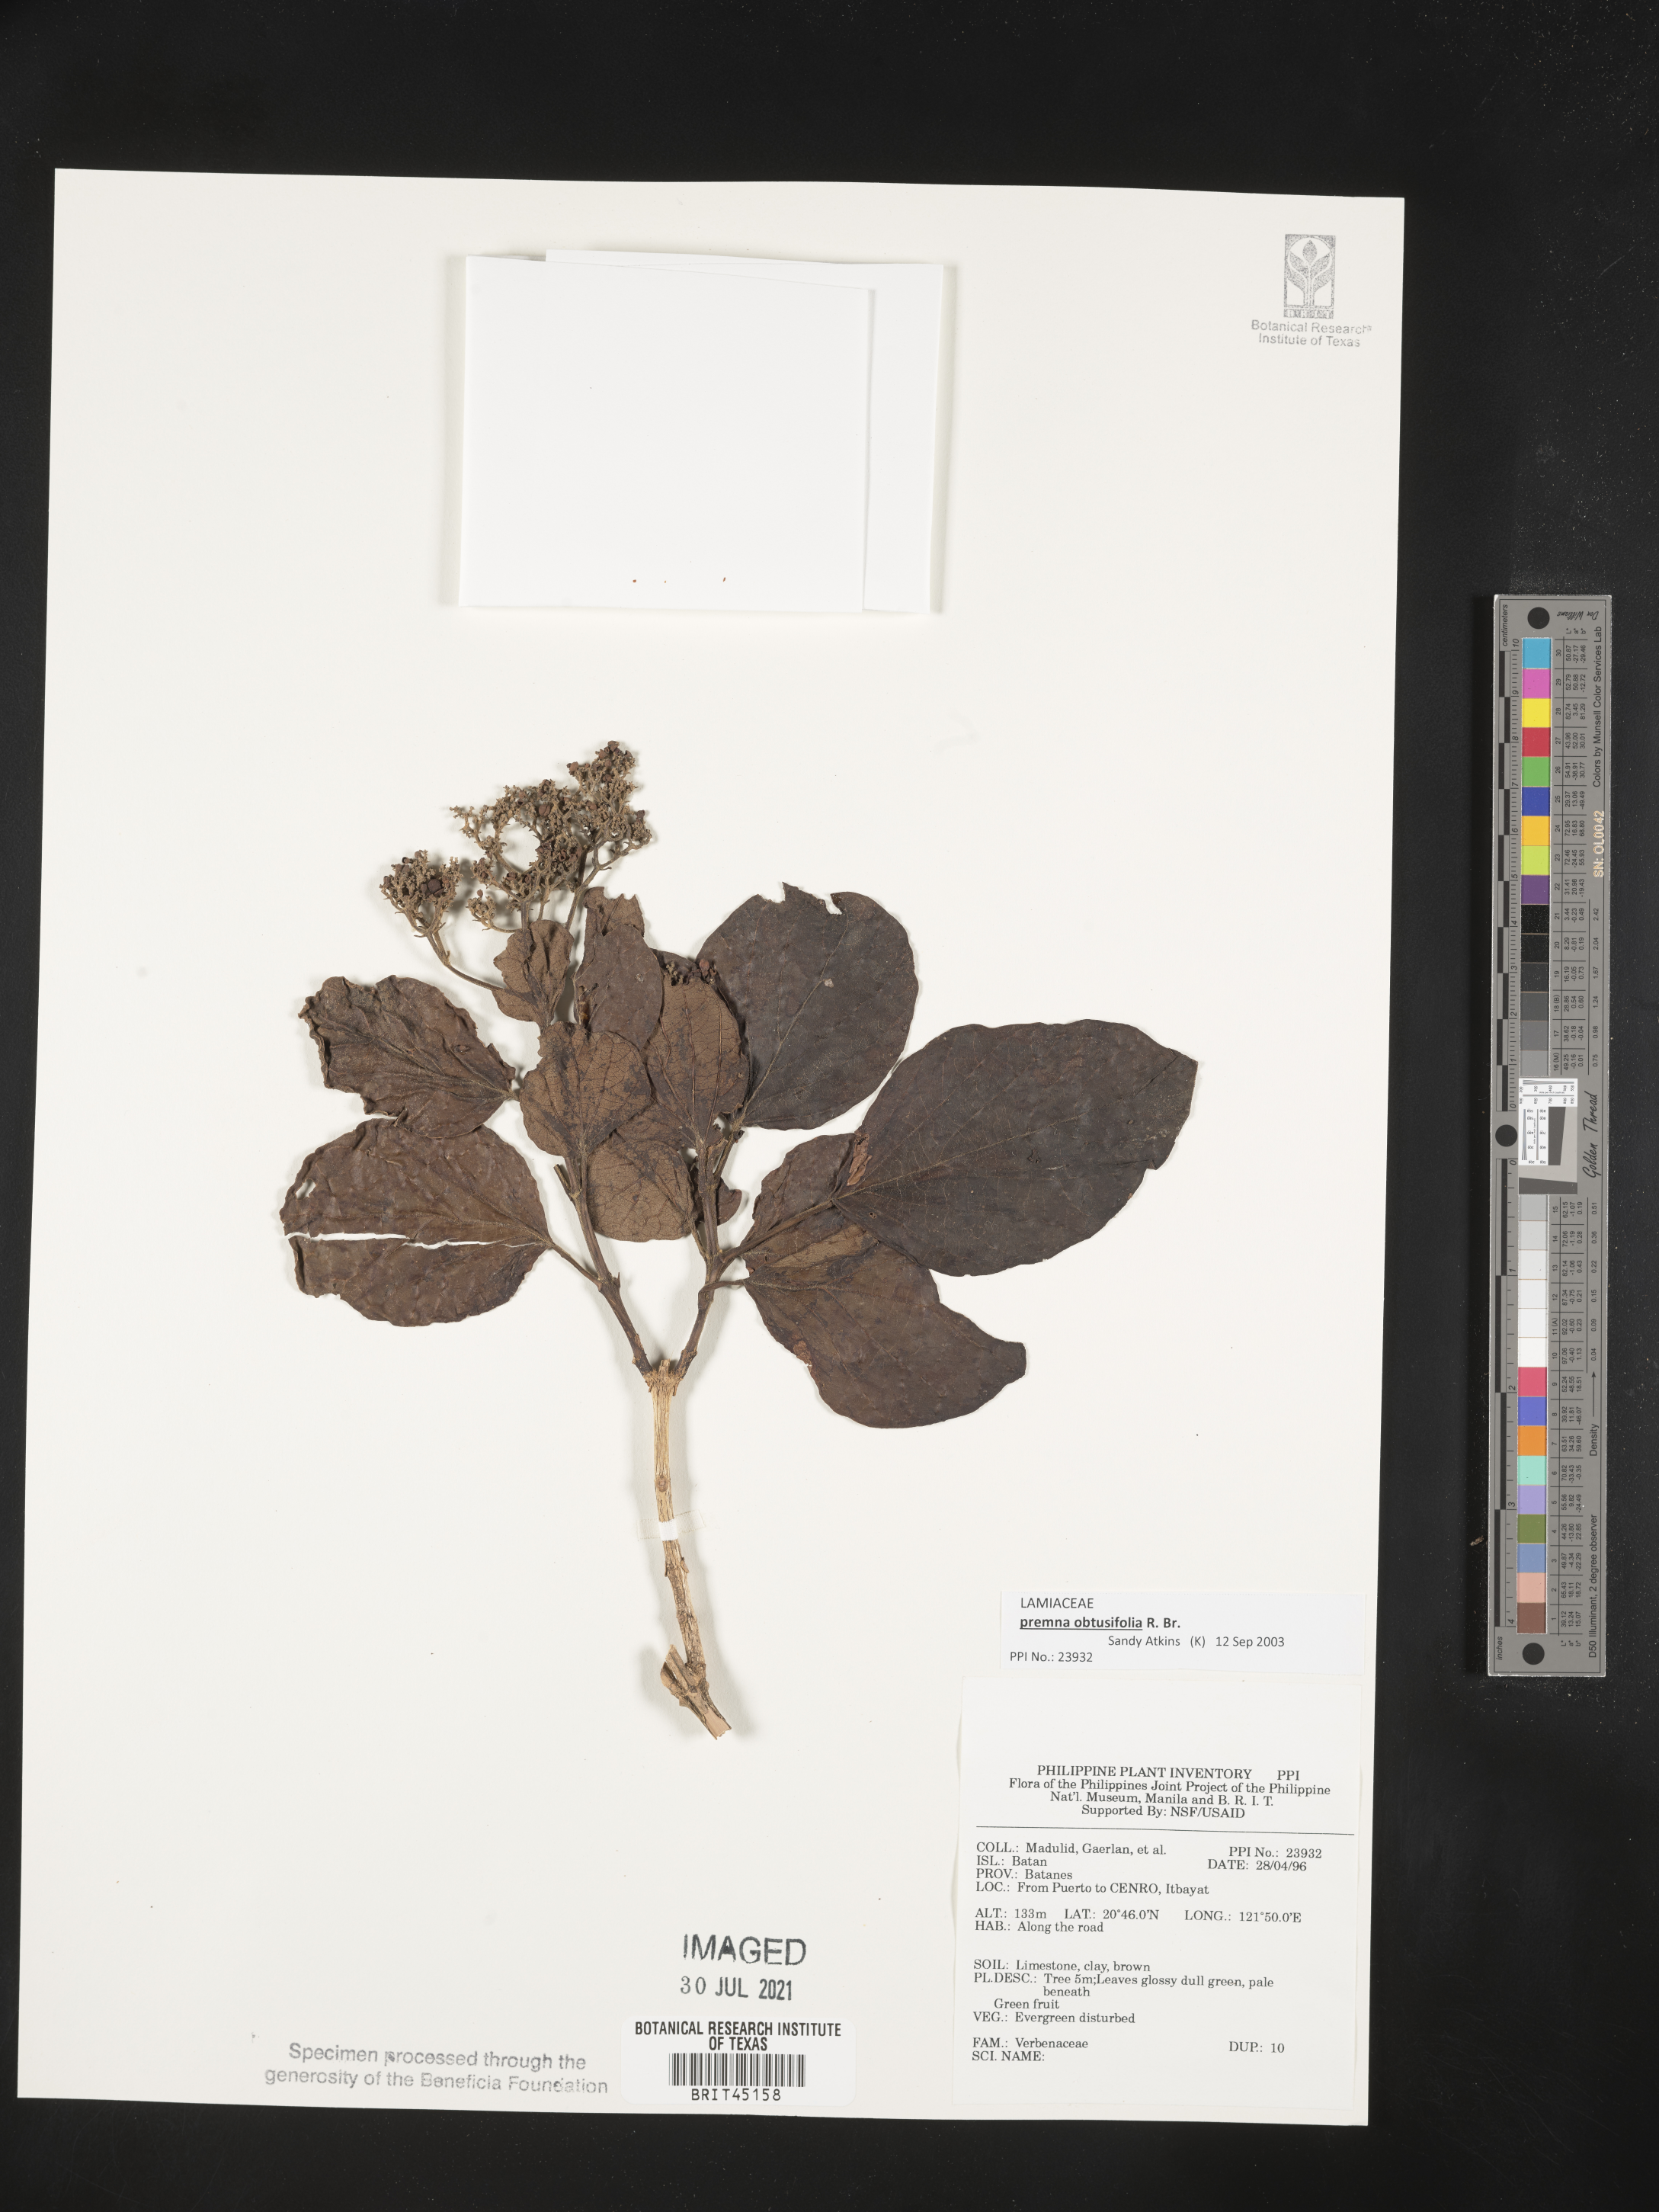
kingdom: Plantae
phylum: Tracheophyta
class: Magnoliopsida
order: Lamiales
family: Verbenaceae
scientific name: Verbenaceae
